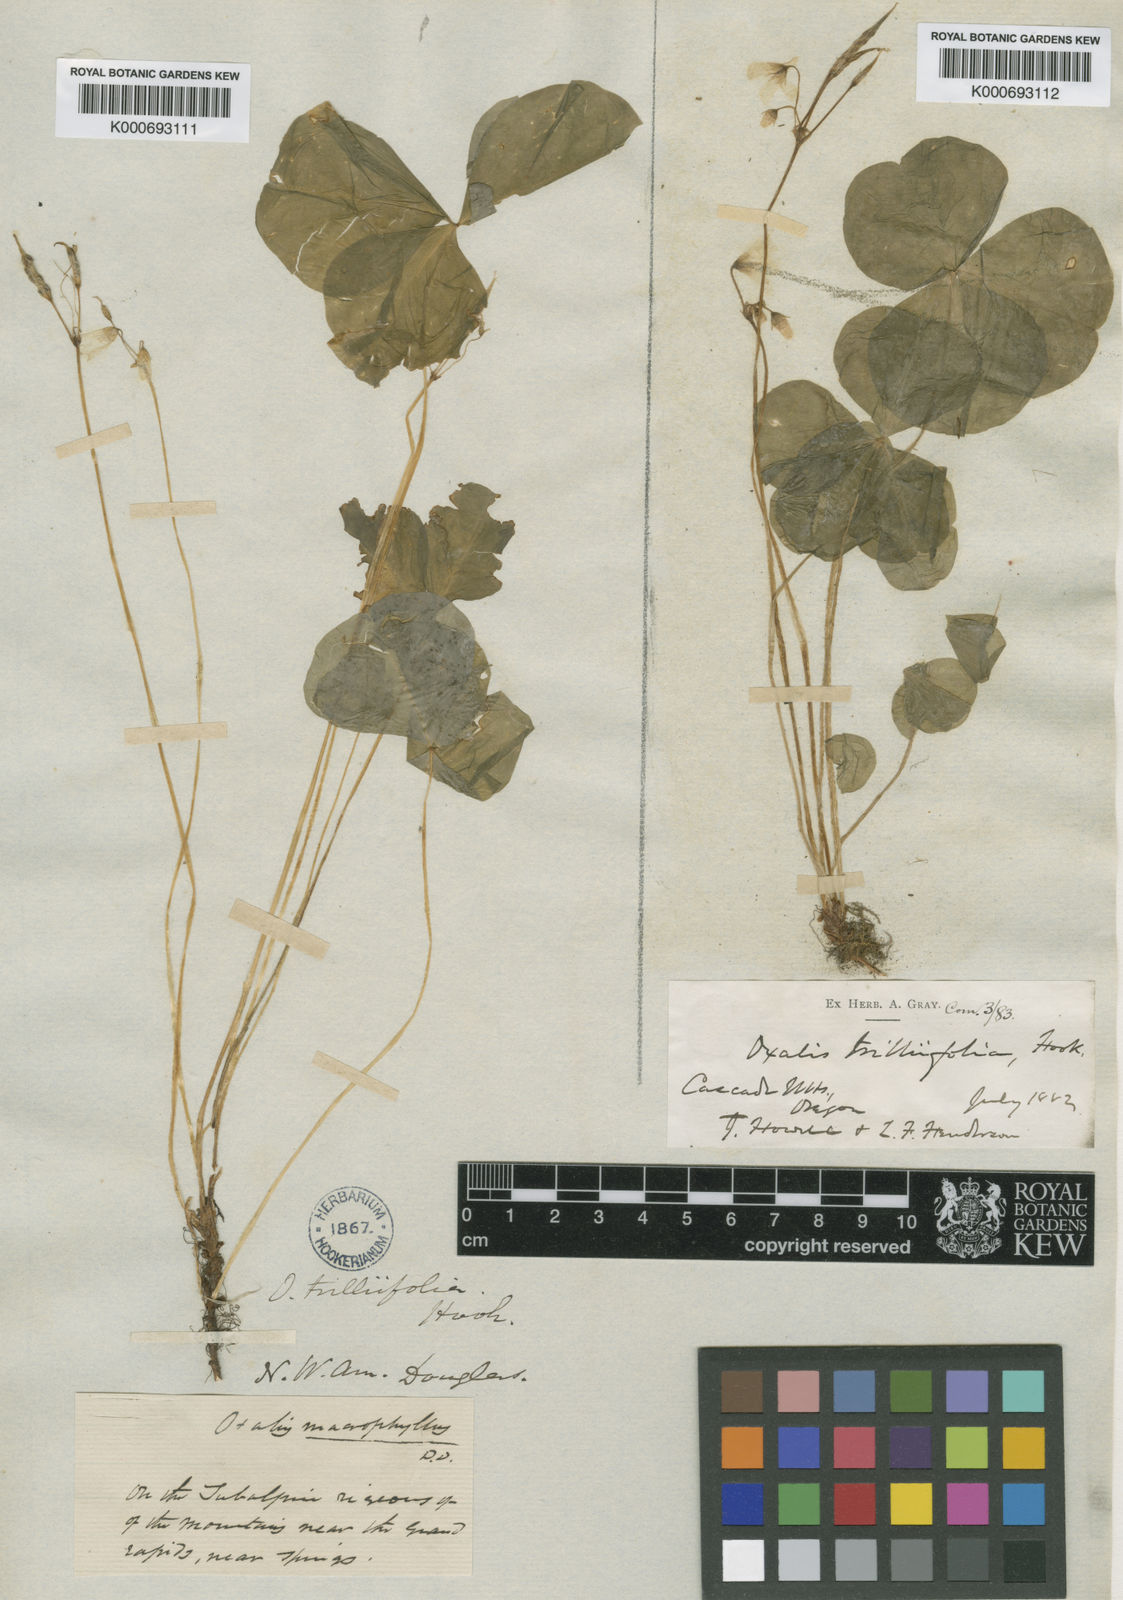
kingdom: Plantae
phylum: Tracheophyta
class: Magnoliopsida
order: Oxalidales
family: Oxalidaceae
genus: Oxalis
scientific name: Oxalis trilliifolia
